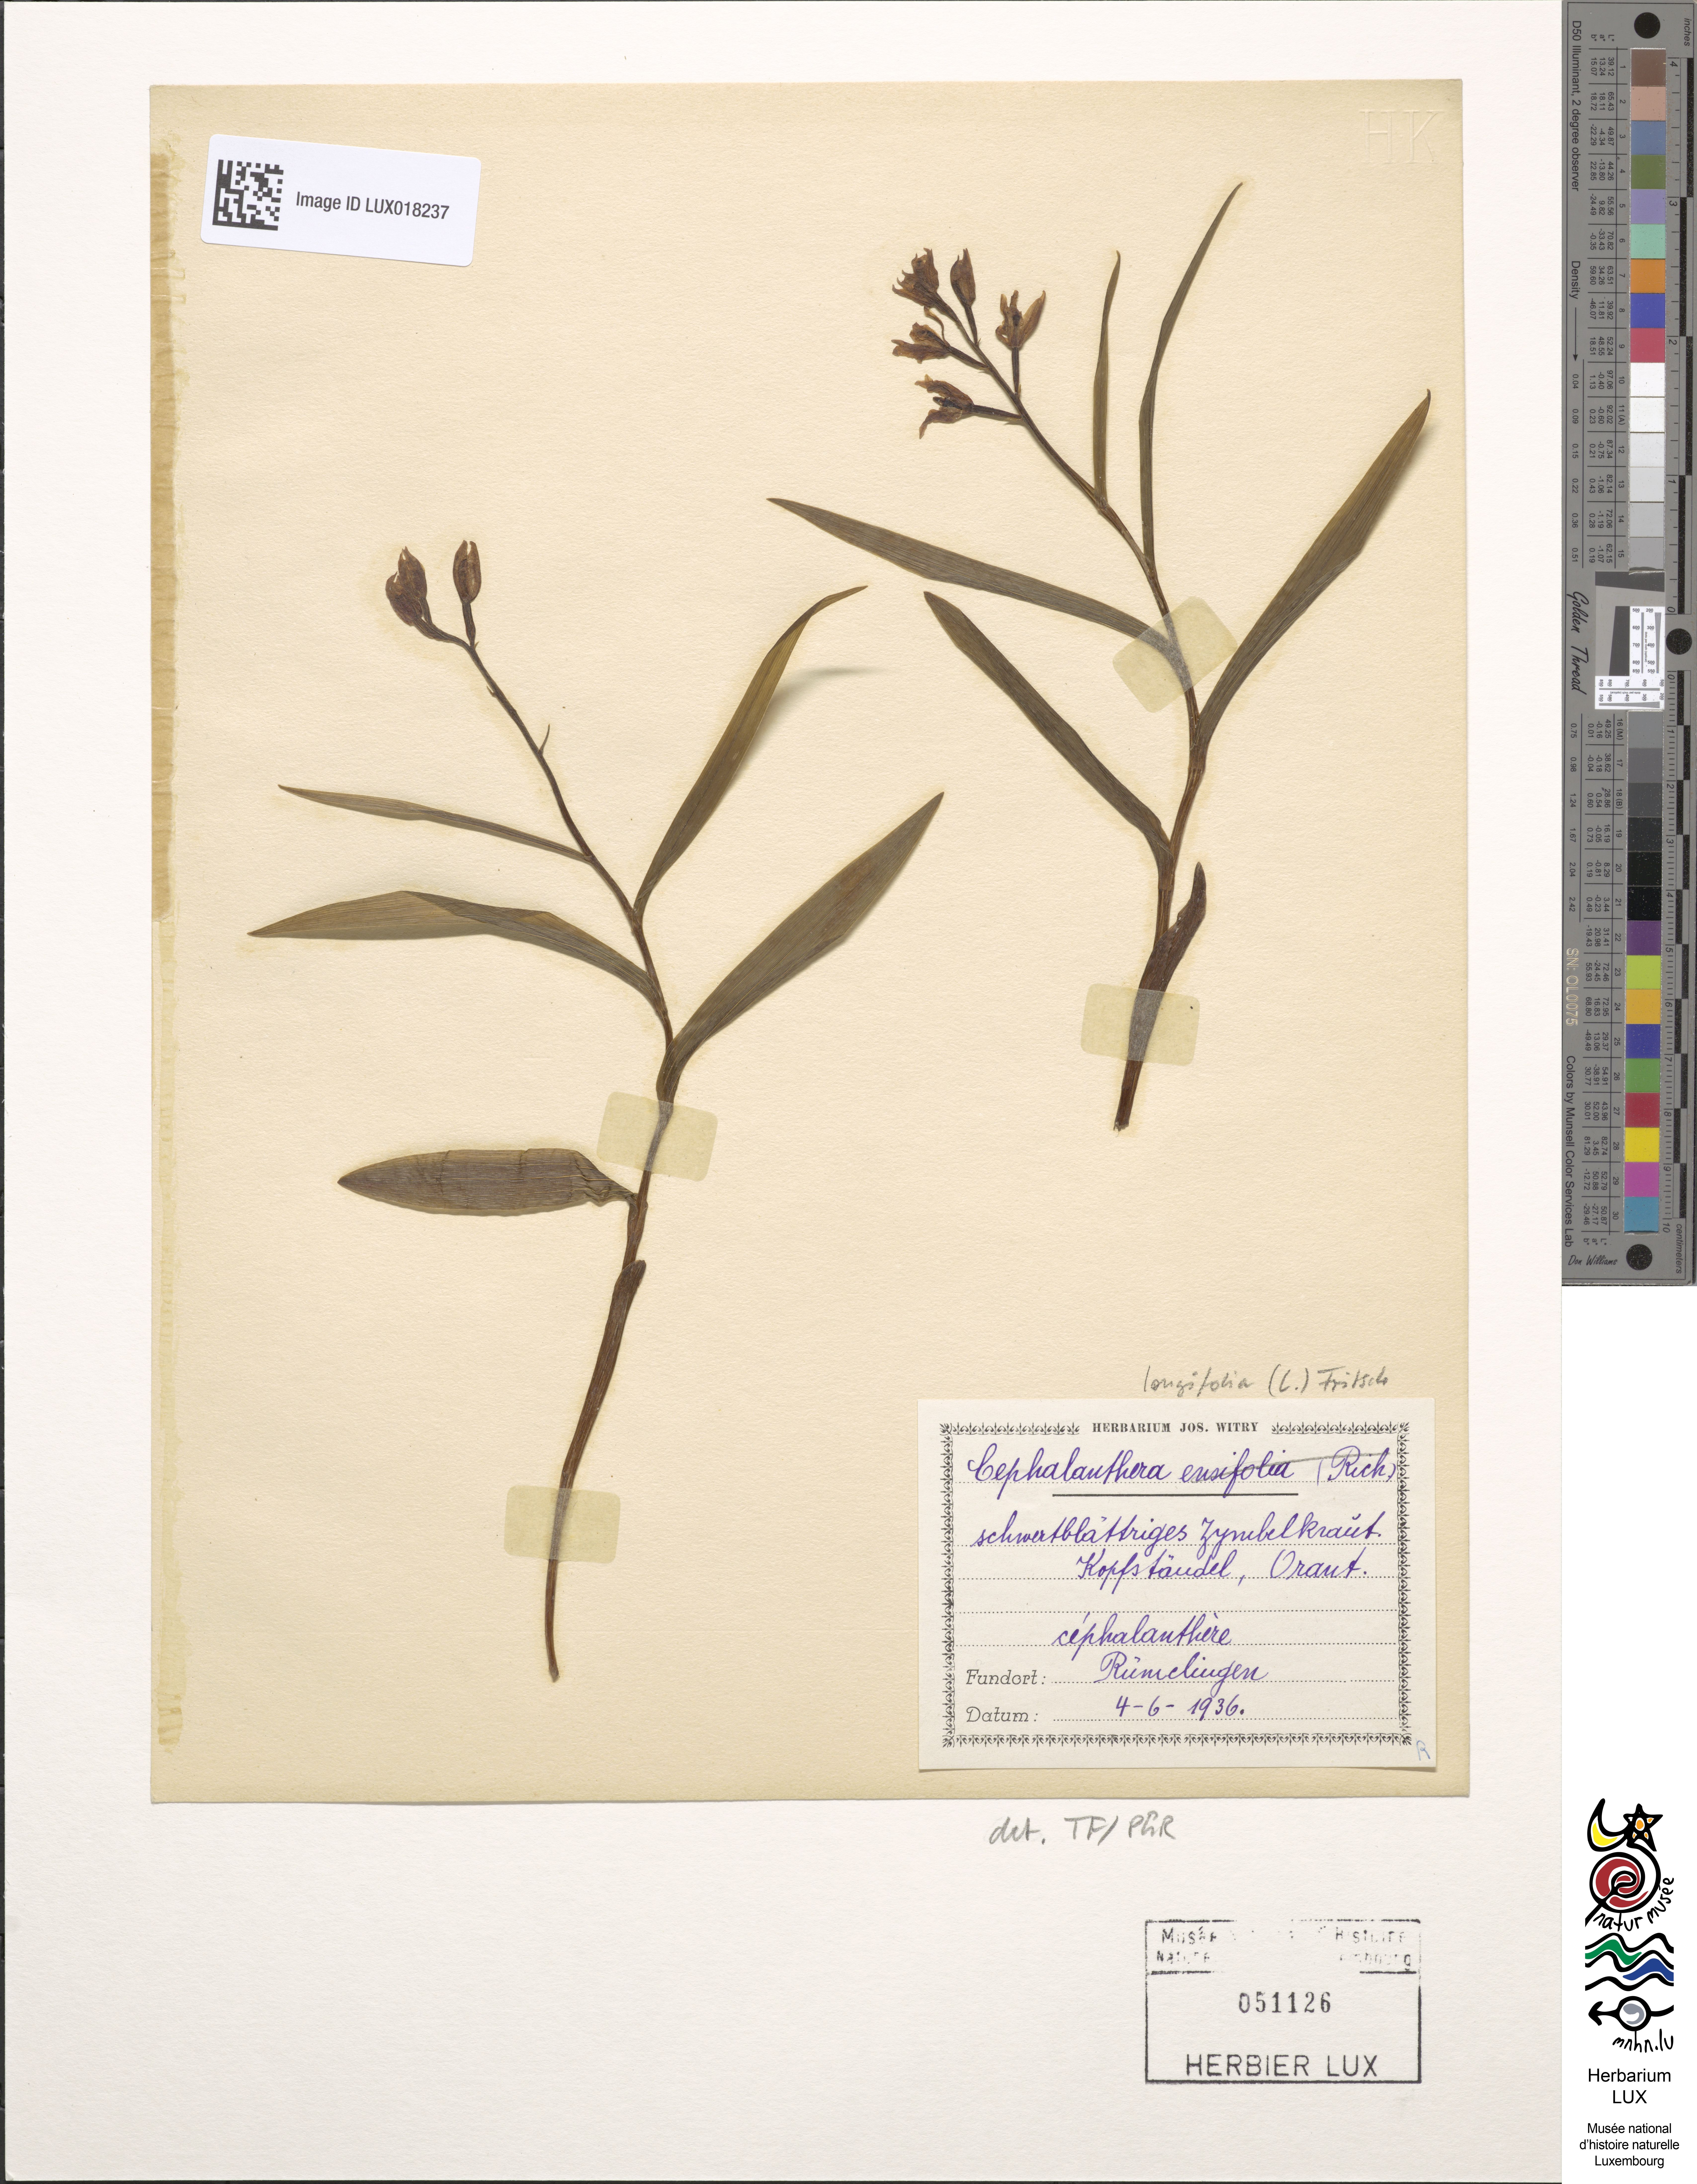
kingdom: Plantae
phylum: Tracheophyta
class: Liliopsida
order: Asparagales
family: Orchidaceae
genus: Cephalanthera
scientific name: Cephalanthera longifolia
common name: Narrow-leaved helleborine
